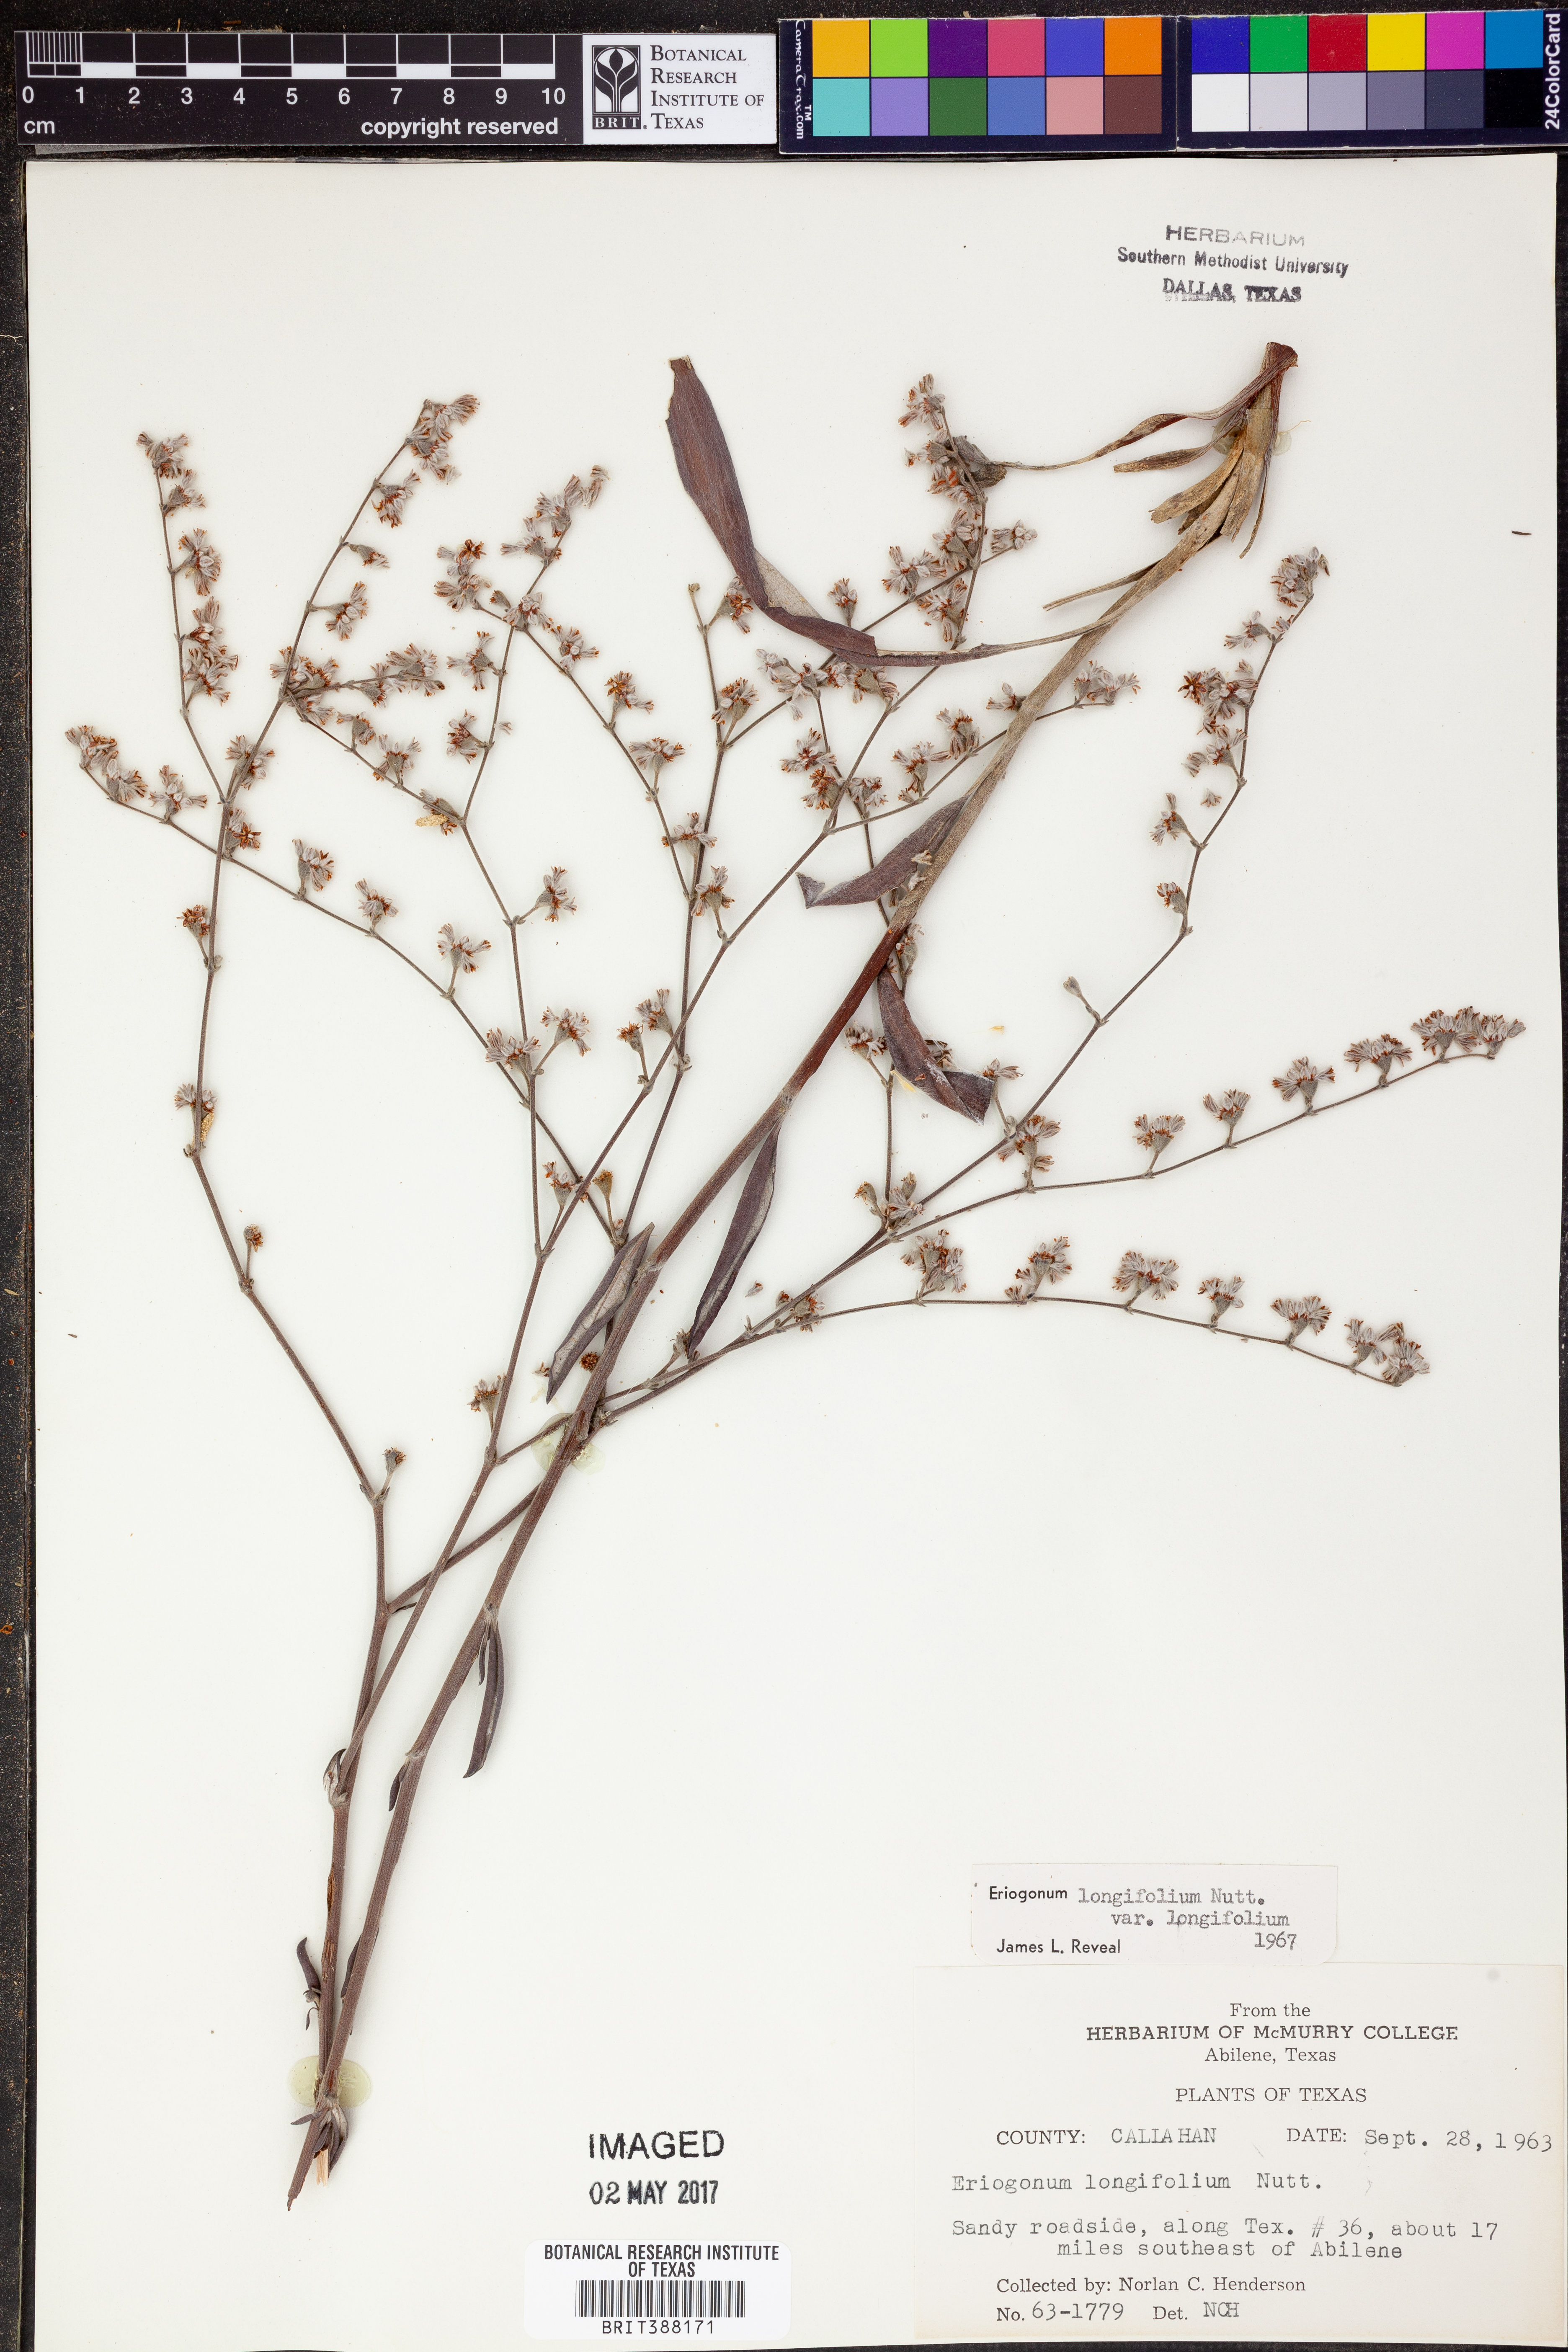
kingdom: Plantae
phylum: Tracheophyta
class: Magnoliopsida
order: Caryophyllales
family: Polygonaceae
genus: Eriogonum
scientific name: Eriogonum longifolium
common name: Longleaf wild buckwheat
